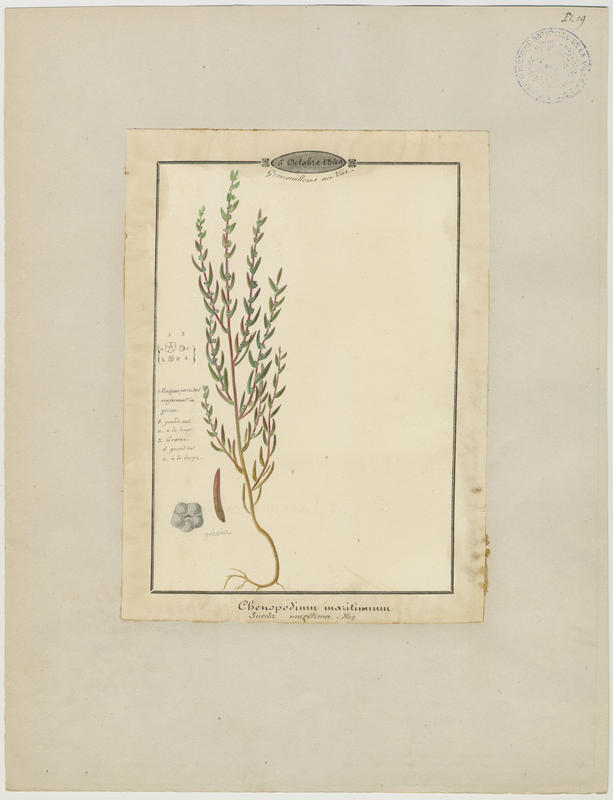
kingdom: Plantae
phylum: Tracheophyta
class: Magnoliopsida
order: Caryophyllales
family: Amaranthaceae
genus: Suaeda
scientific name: Suaeda maritima
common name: Annual sea-blite
